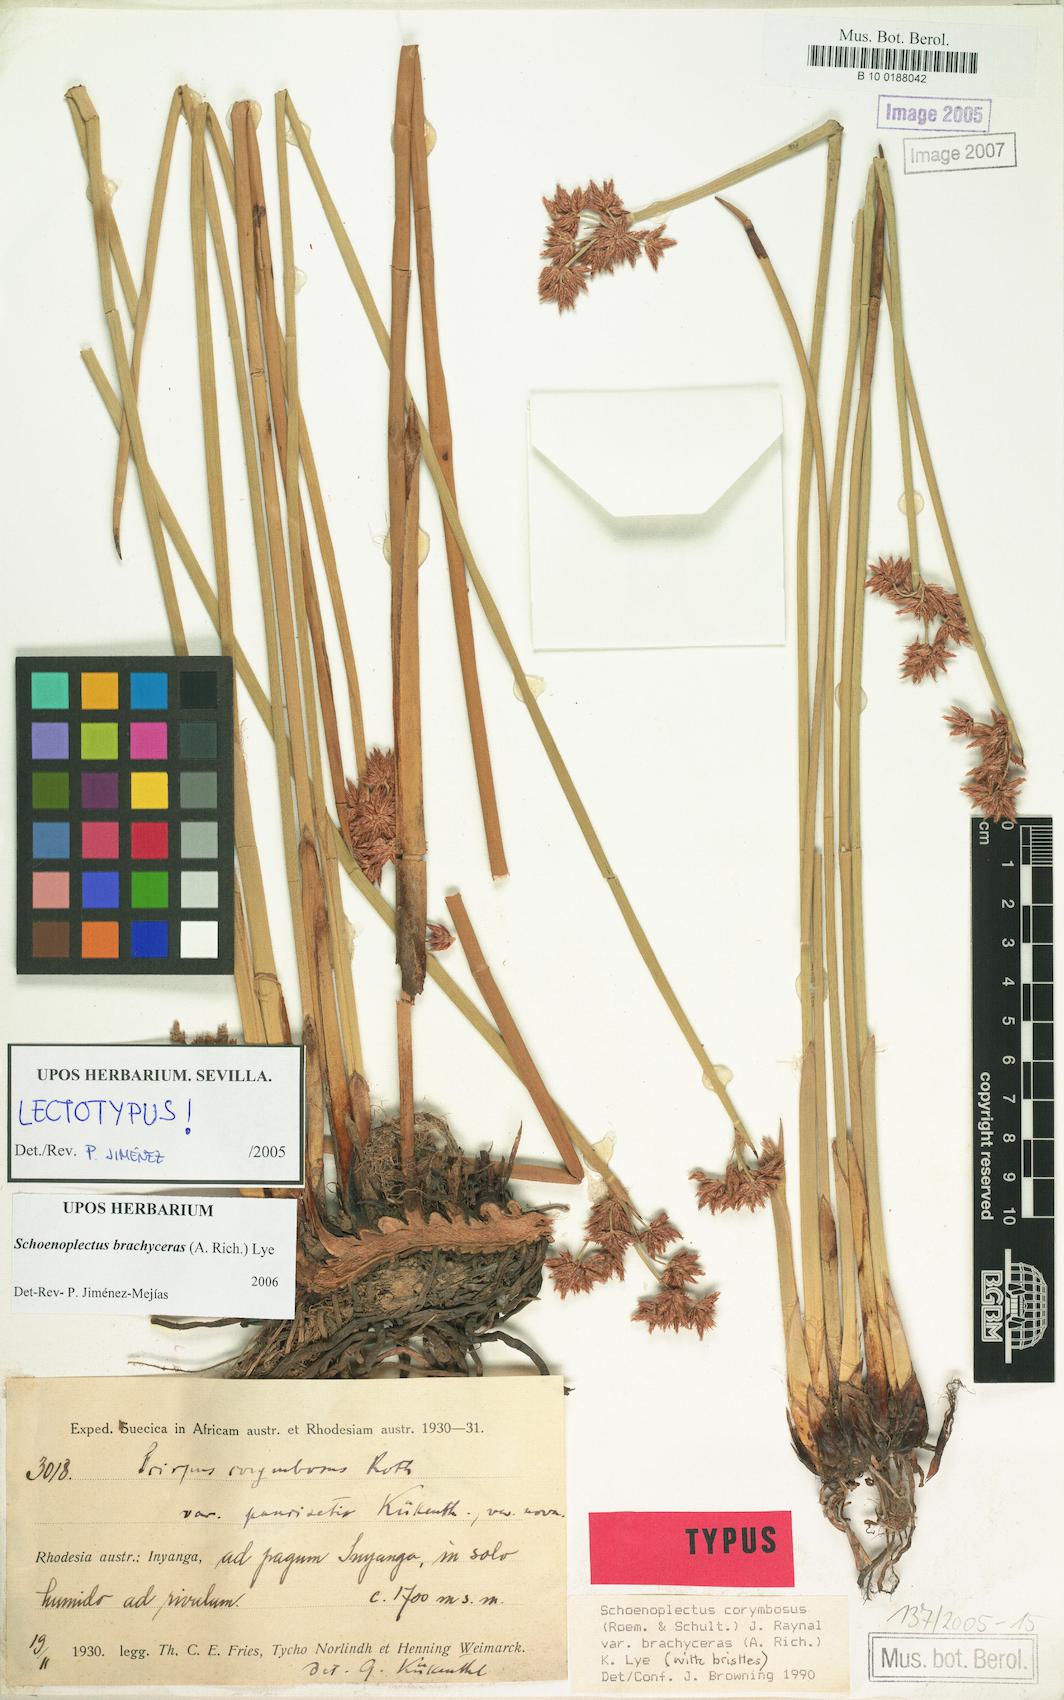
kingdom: Plantae
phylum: Tracheophyta
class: Liliopsida
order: Poales
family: Cyperaceae
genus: Schoenoplectiella
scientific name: Schoenoplectiella brachyceras
